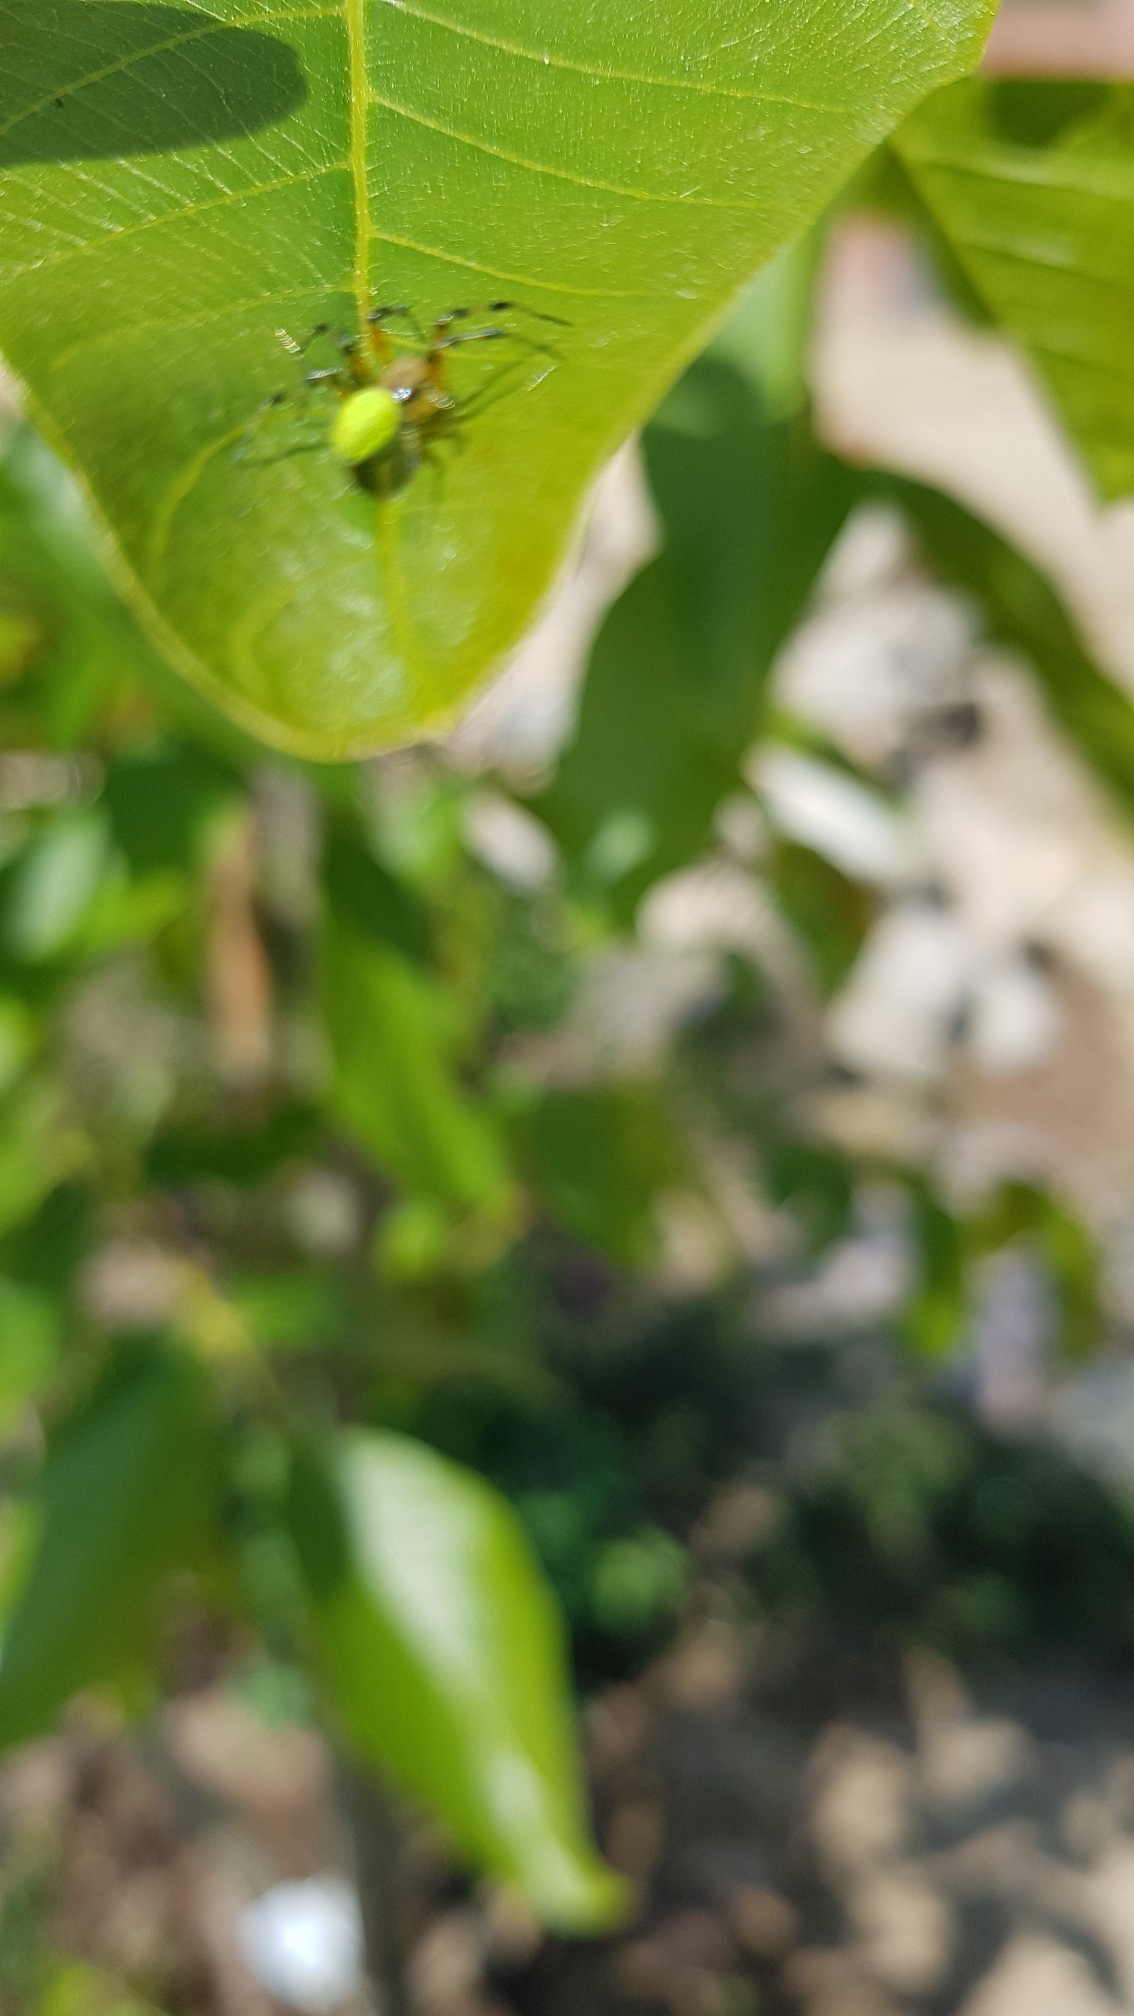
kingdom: Animalia
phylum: Arthropoda
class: Arachnida
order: Araneae
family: Araneidae
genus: Araniella
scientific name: Araniella
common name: Agurkeedderkopslægten
